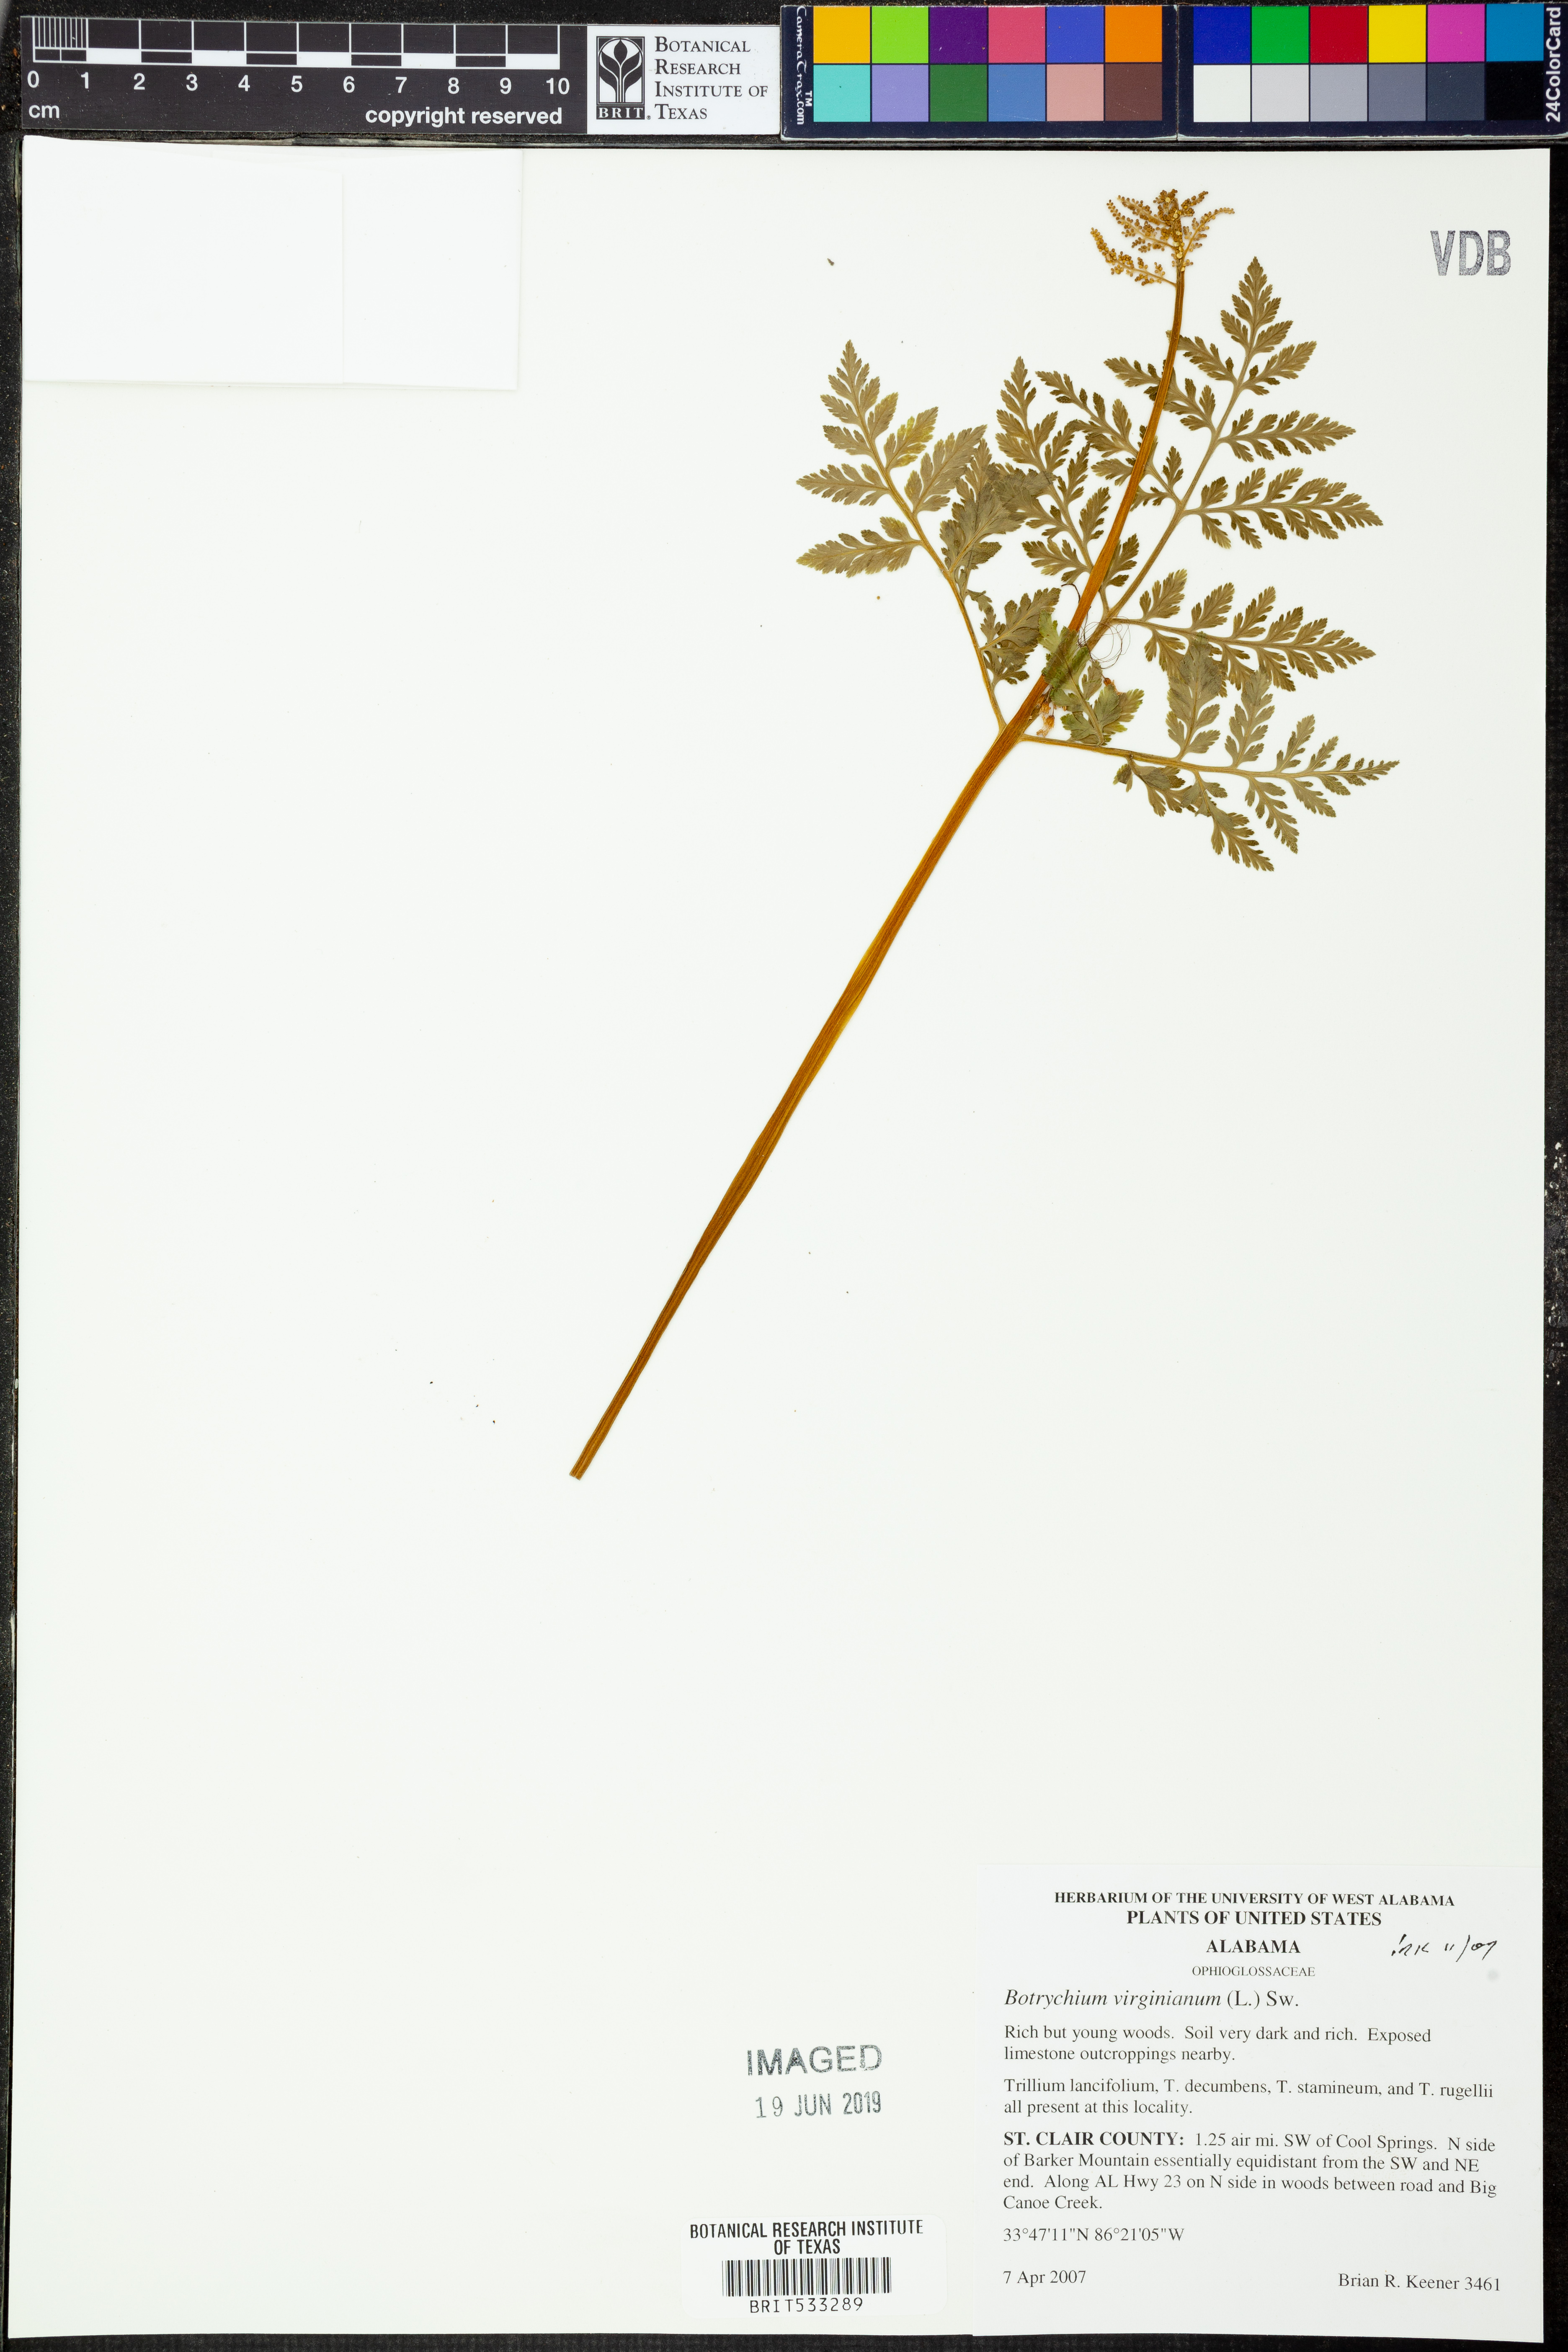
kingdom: Plantae
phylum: Tracheophyta
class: Polypodiopsida
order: Ophioglossales
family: Ophioglossaceae
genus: Botrypus
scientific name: Botrypus virginianus
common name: Common grapefern
